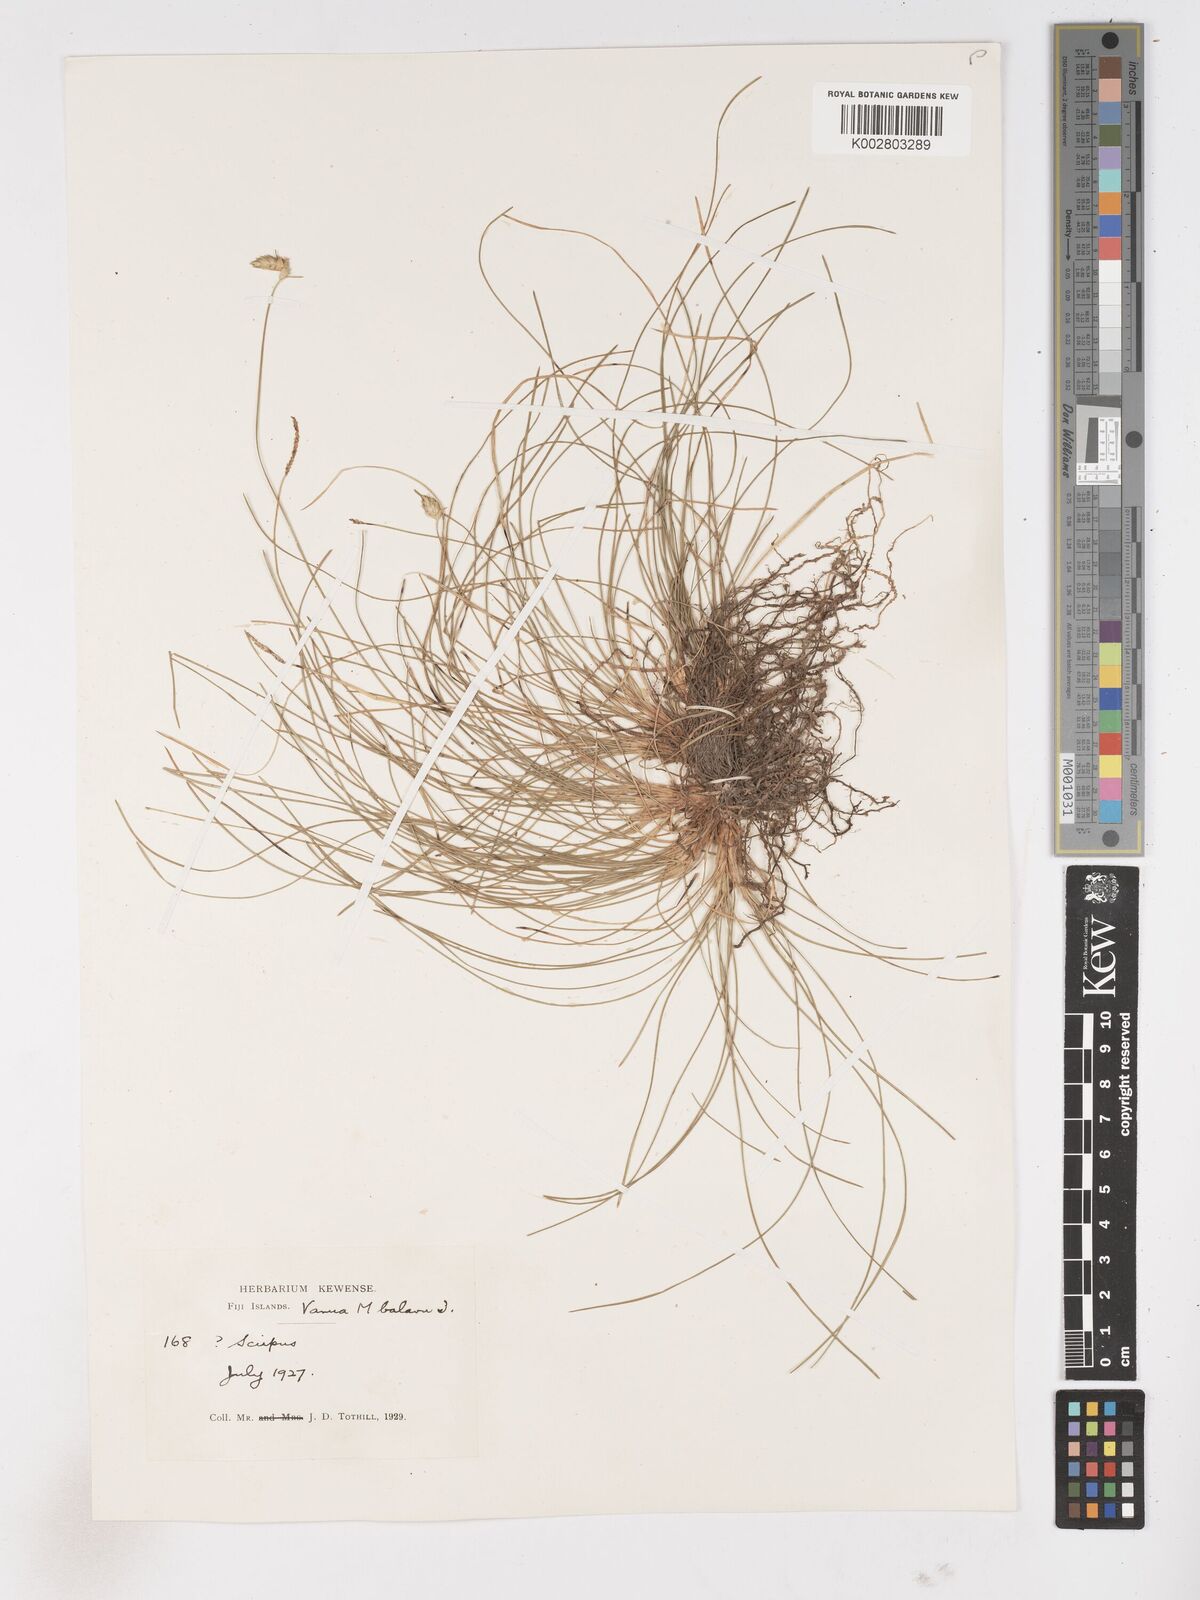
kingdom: Plantae
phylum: Tracheophyta
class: Liliopsida
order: Poales
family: Cyperaceae
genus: Abildgaardia
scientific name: Abildgaardia ovata
